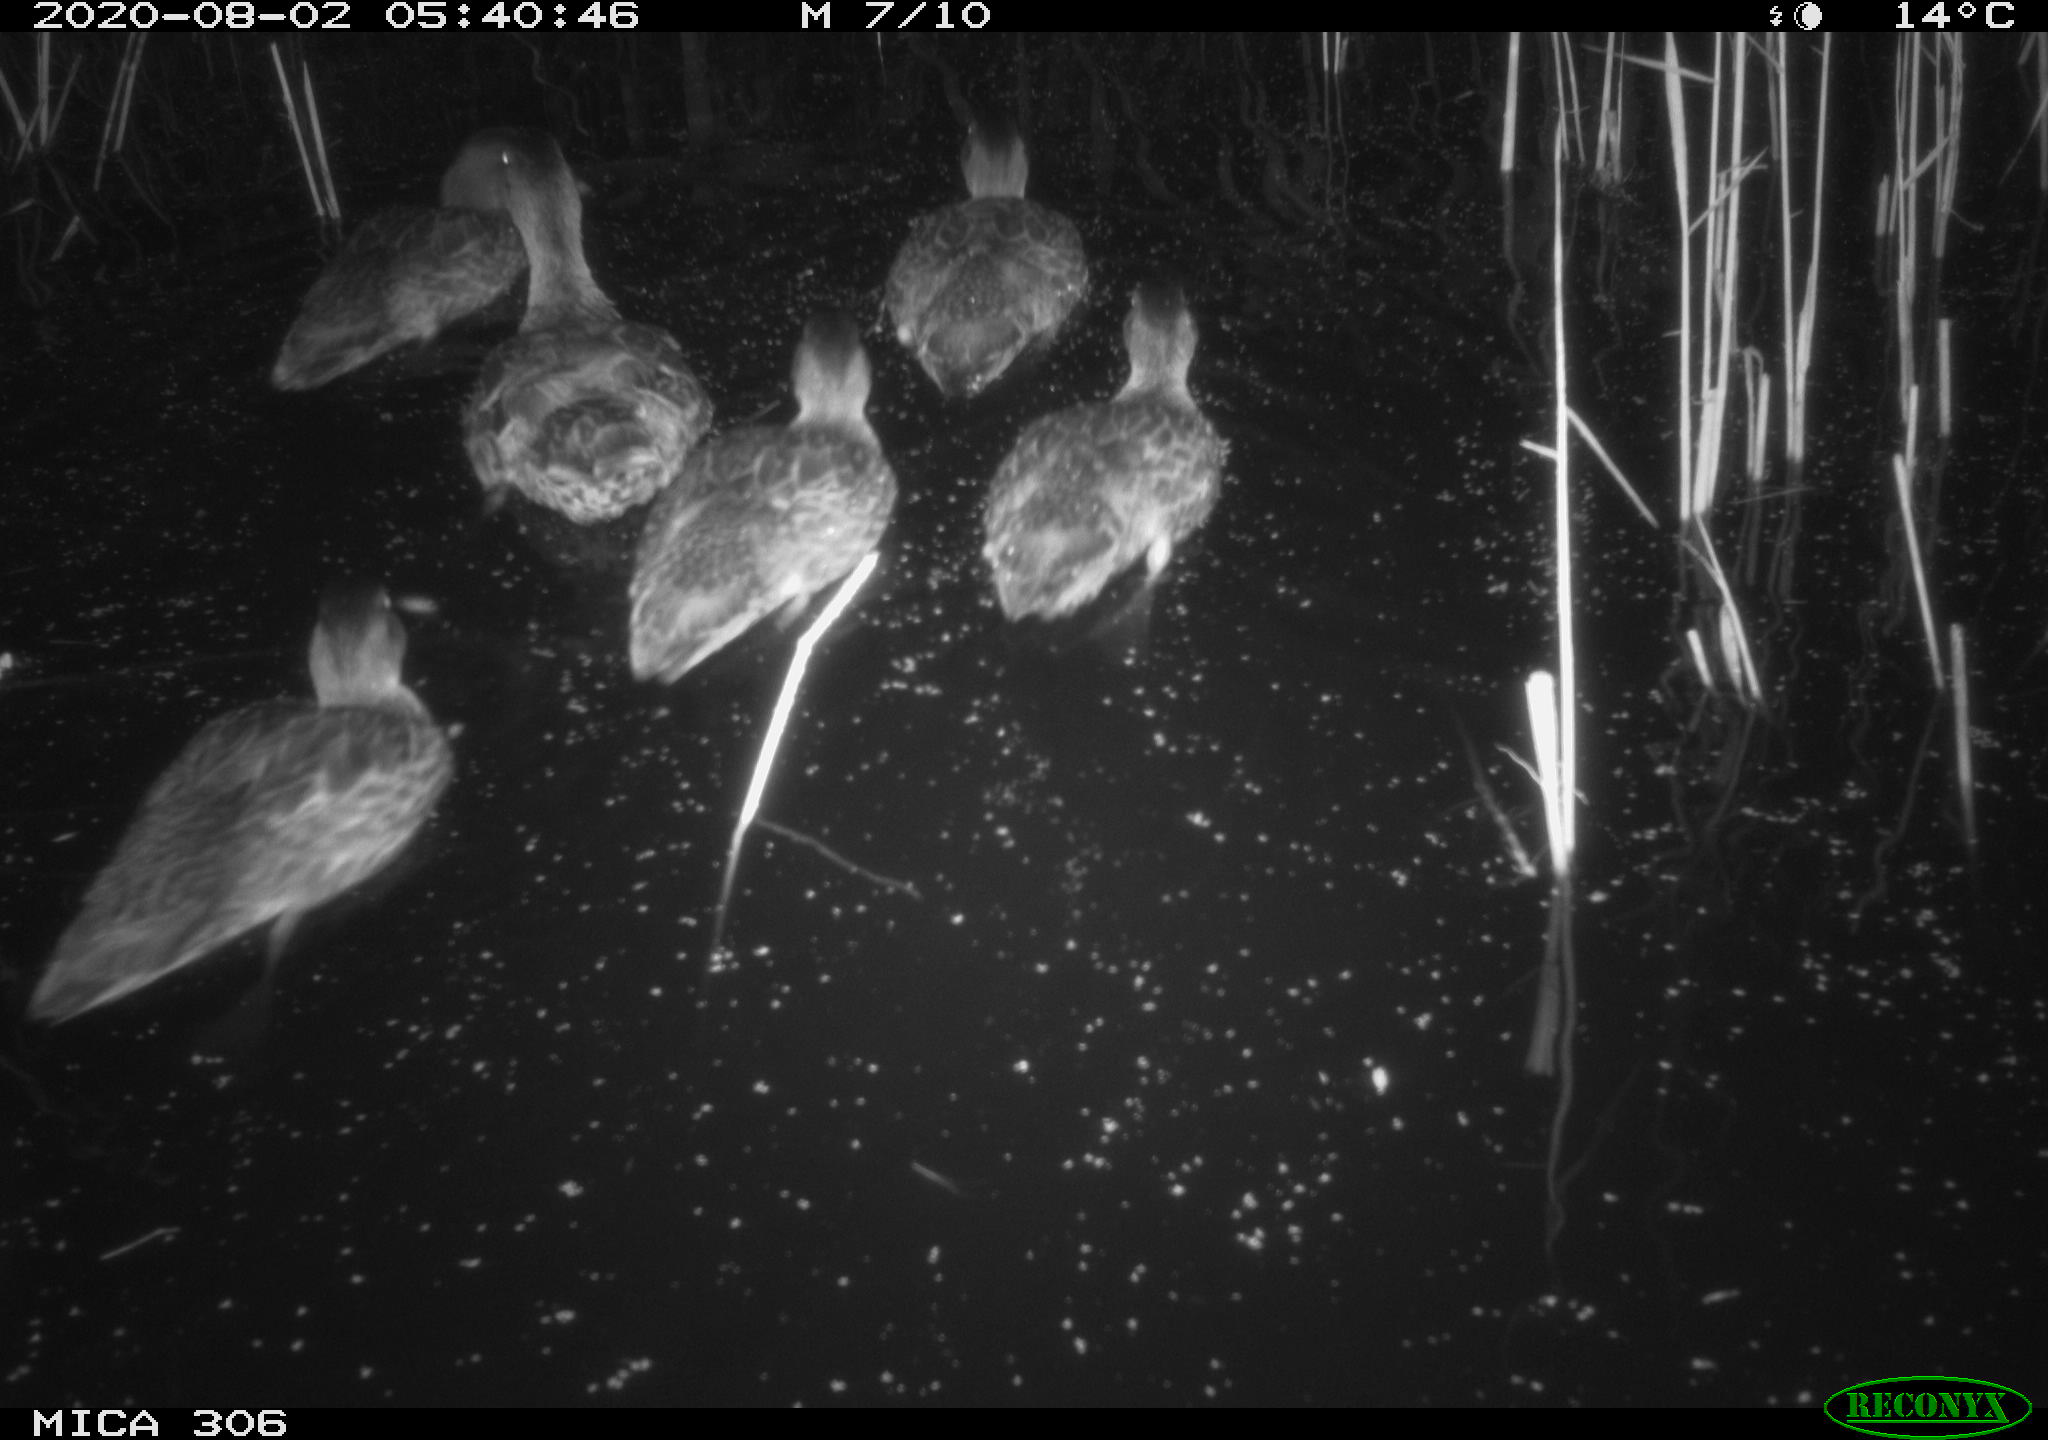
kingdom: Animalia
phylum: Chordata
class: Aves
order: Anseriformes
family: Anatidae
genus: Anas
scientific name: Anas platyrhynchos
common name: Mallard
